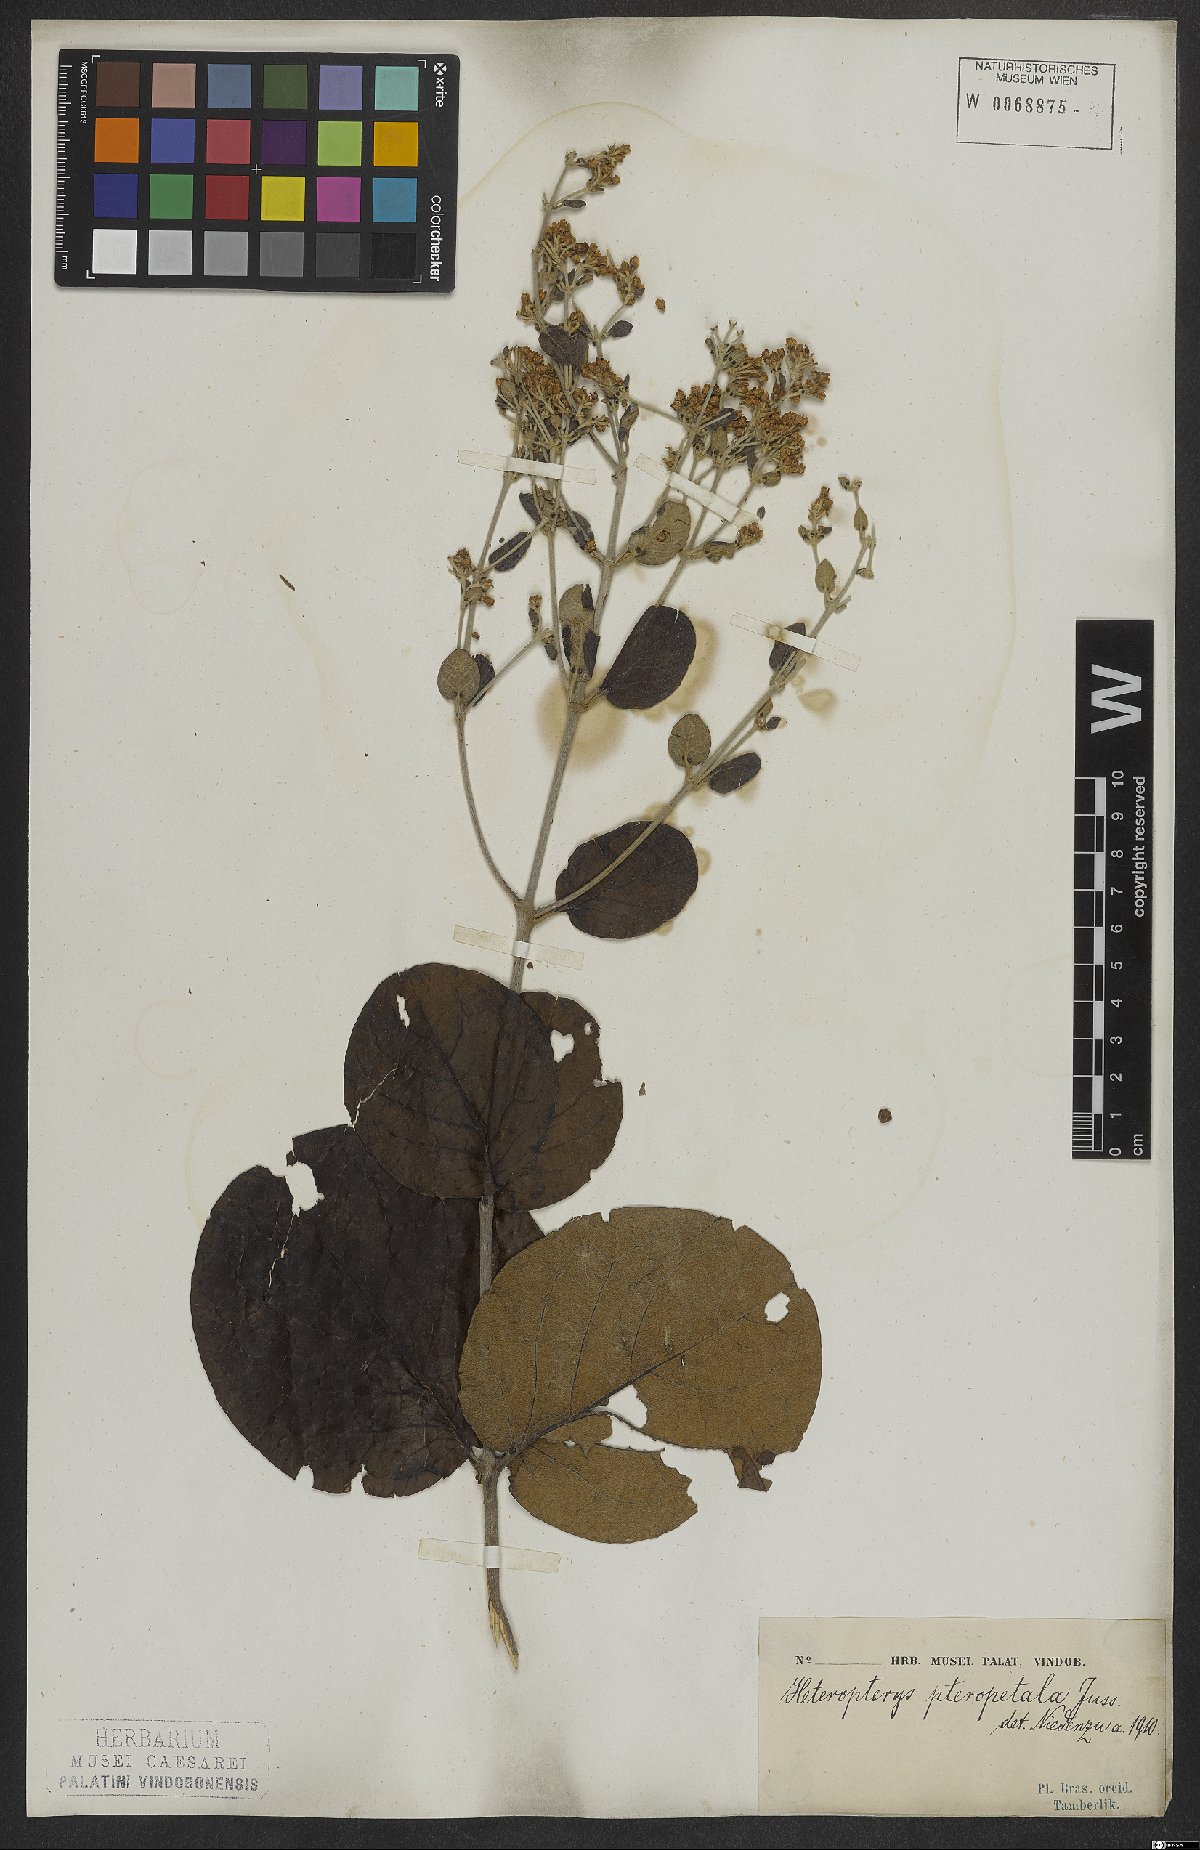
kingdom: Plantae
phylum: Tracheophyta
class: Magnoliopsida
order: Malpighiales
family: Malpighiaceae
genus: Heteropterys
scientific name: Heteropterys pteropetala
